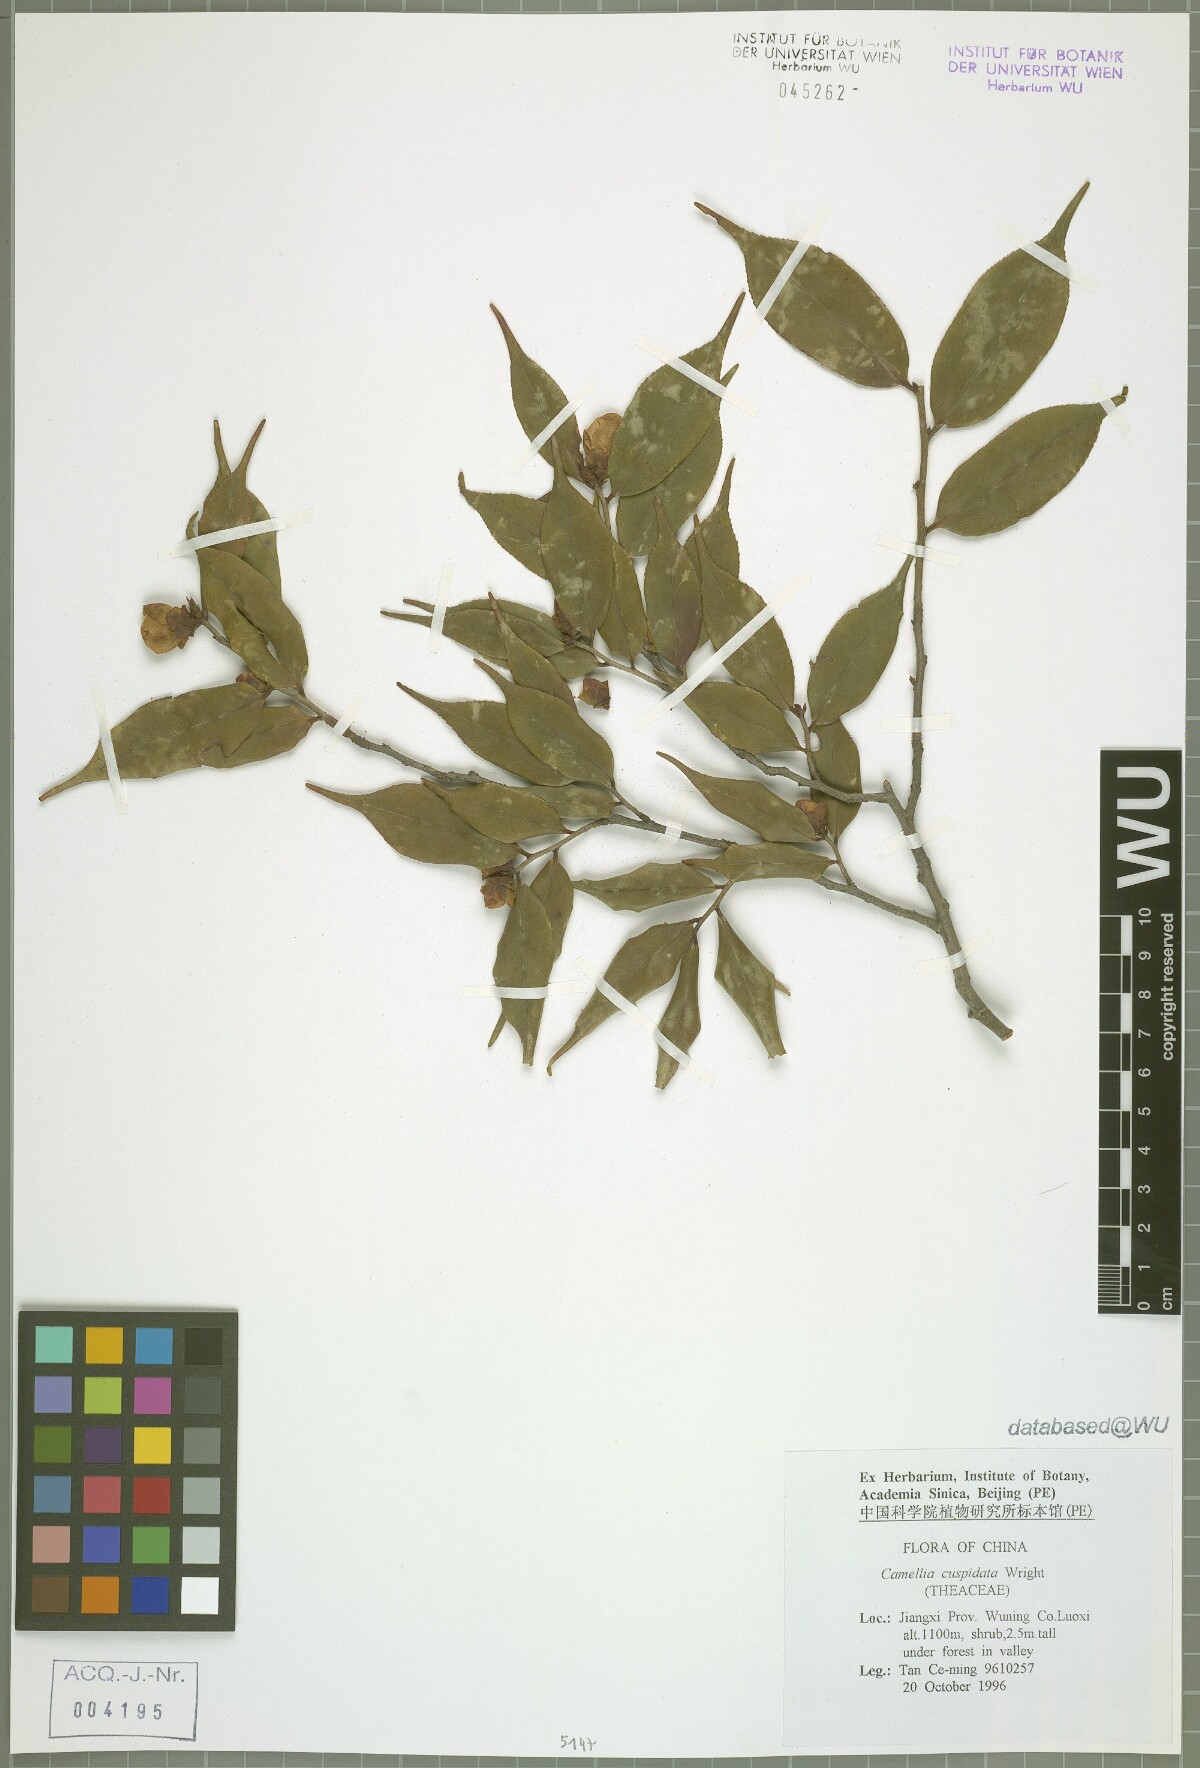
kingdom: Plantae
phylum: Tracheophyta
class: Magnoliopsida
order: Ericales
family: Theaceae
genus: Camellia
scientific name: Camellia cuspidata
